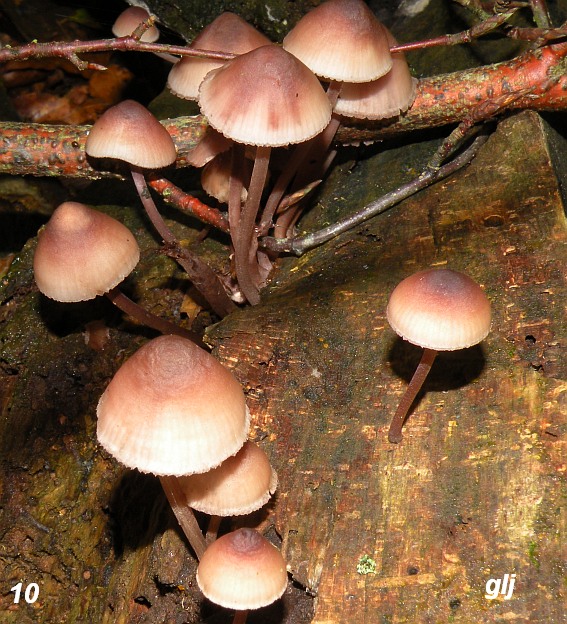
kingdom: Fungi
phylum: Basidiomycota
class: Agaricomycetes
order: Agaricales
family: Mycenaceae
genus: Mycena
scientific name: Mycena haematopus
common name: blødende huesvamp
